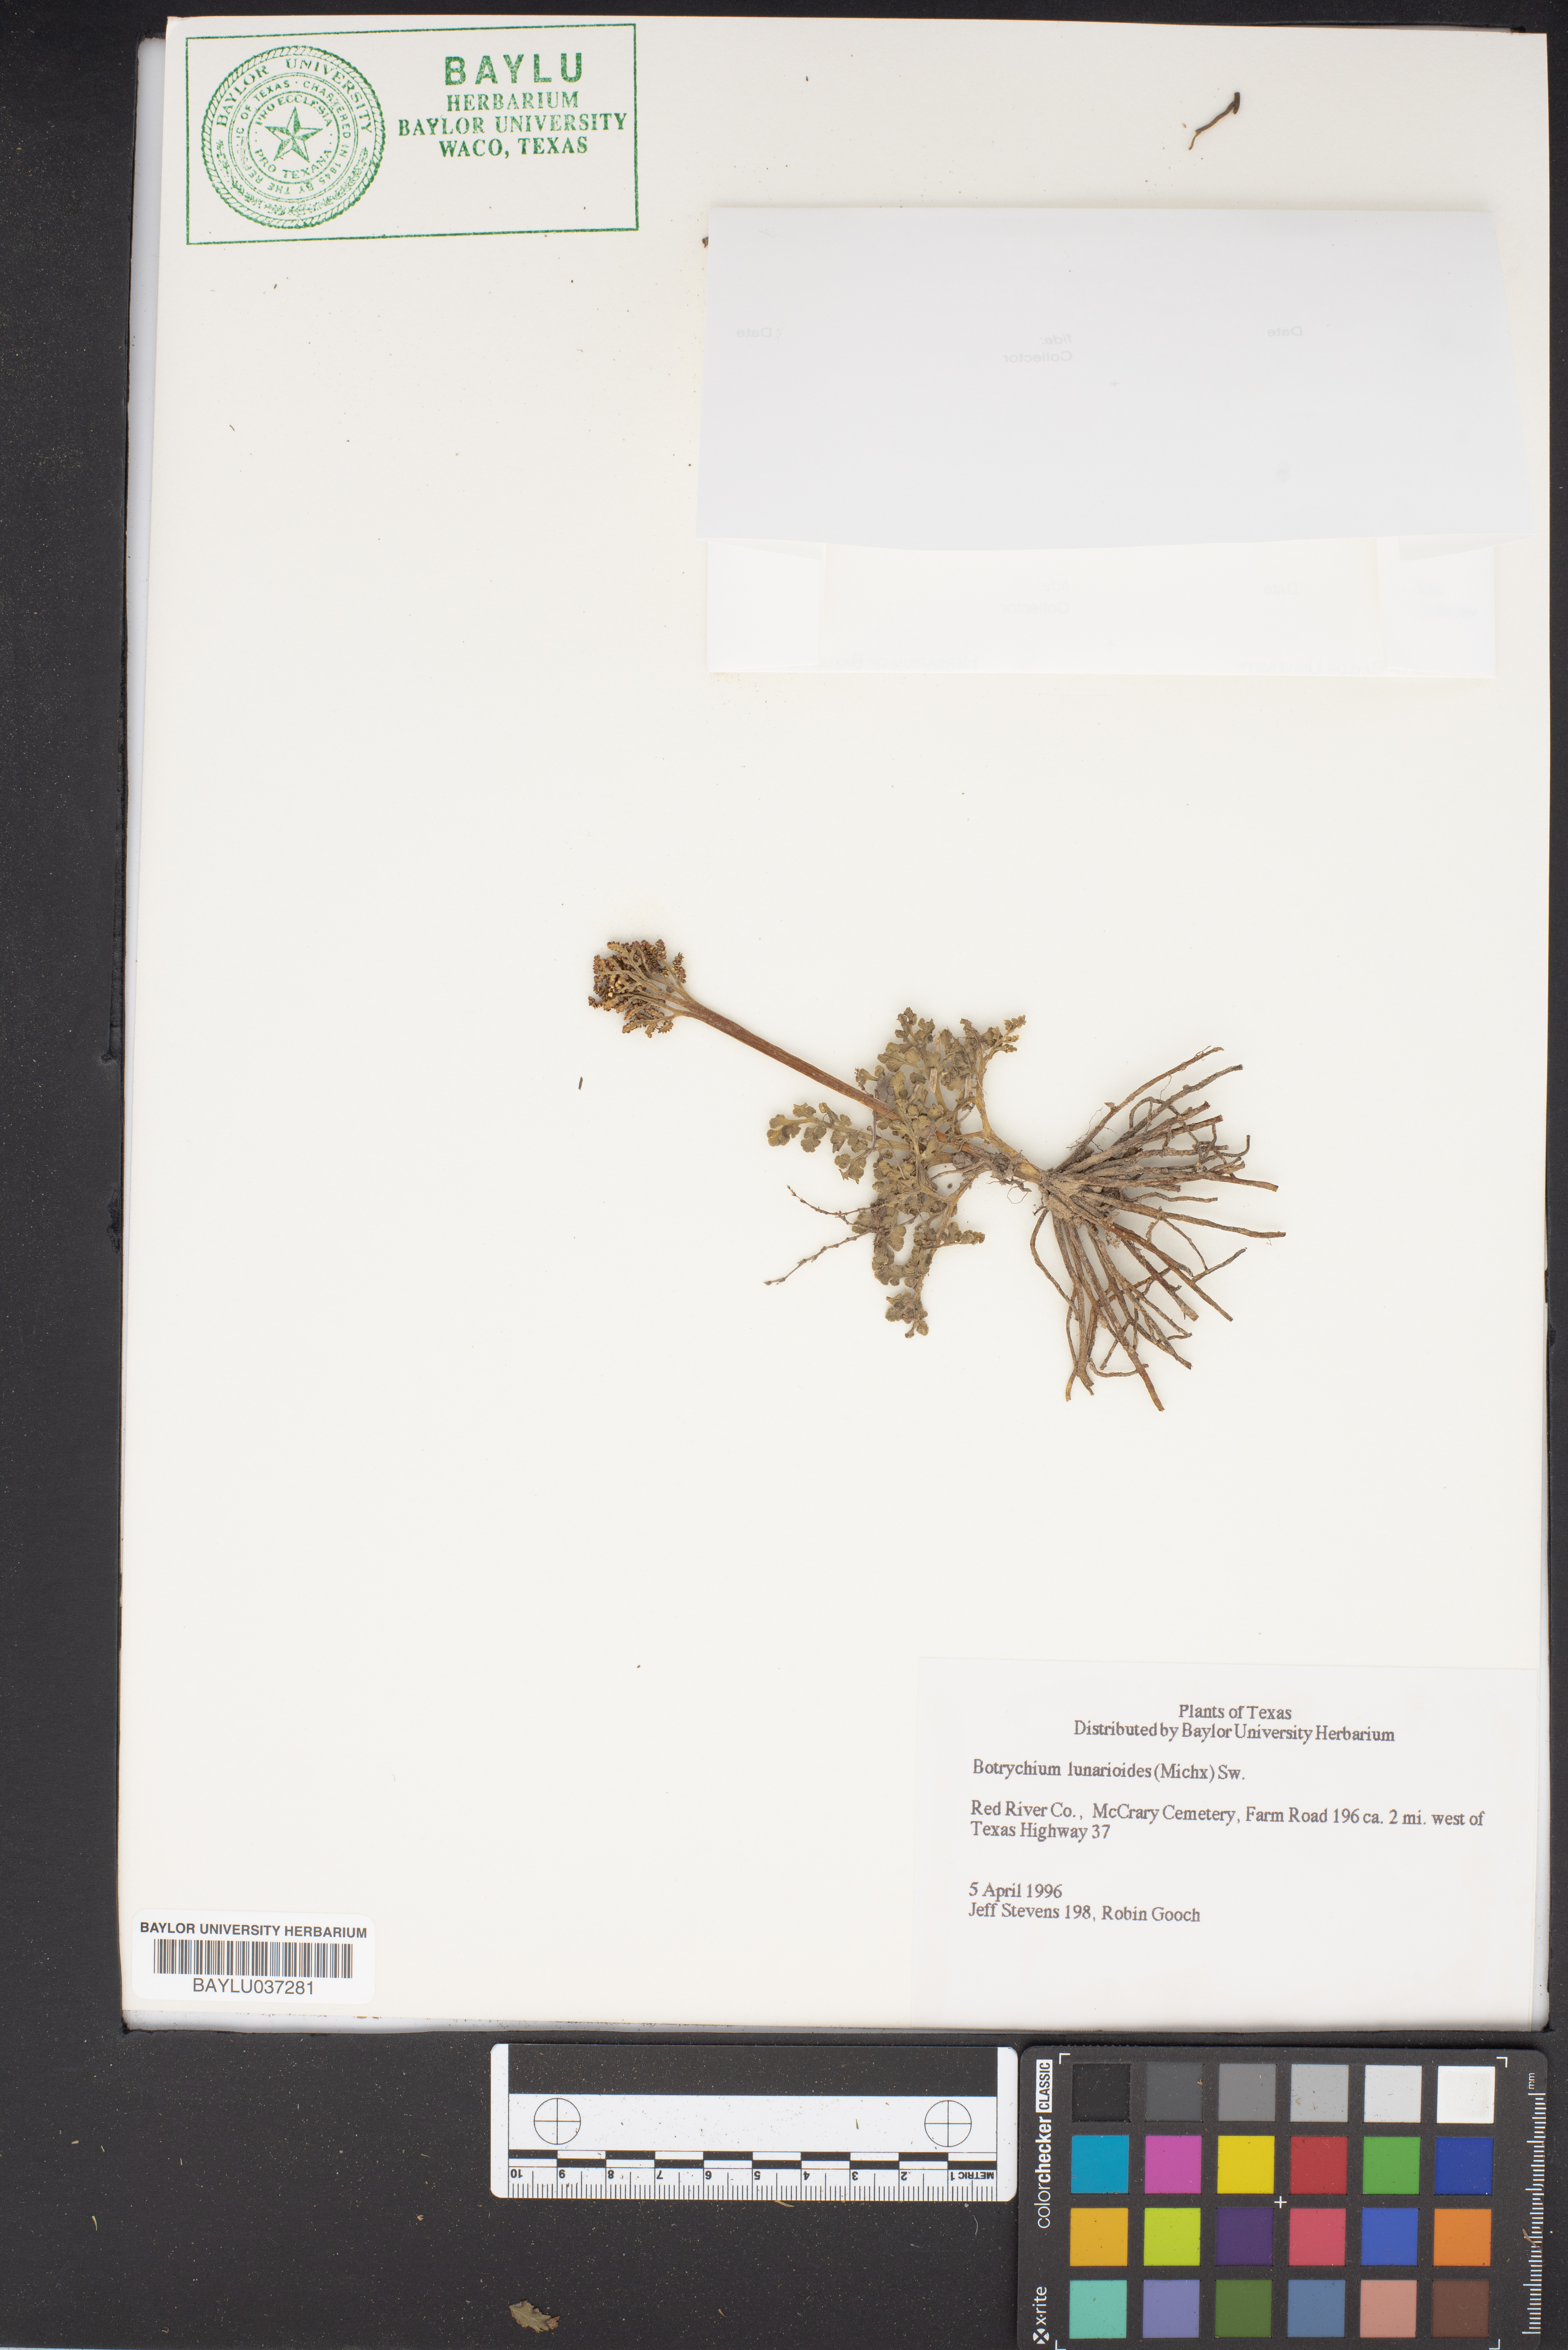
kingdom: Plantae
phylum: Tracheophyta
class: Polypodiopsida
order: Ophioglossales
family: Ophioglossaceae
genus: Sceptridium
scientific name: Sceptridium lunarioides
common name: Prostrate grapefern
